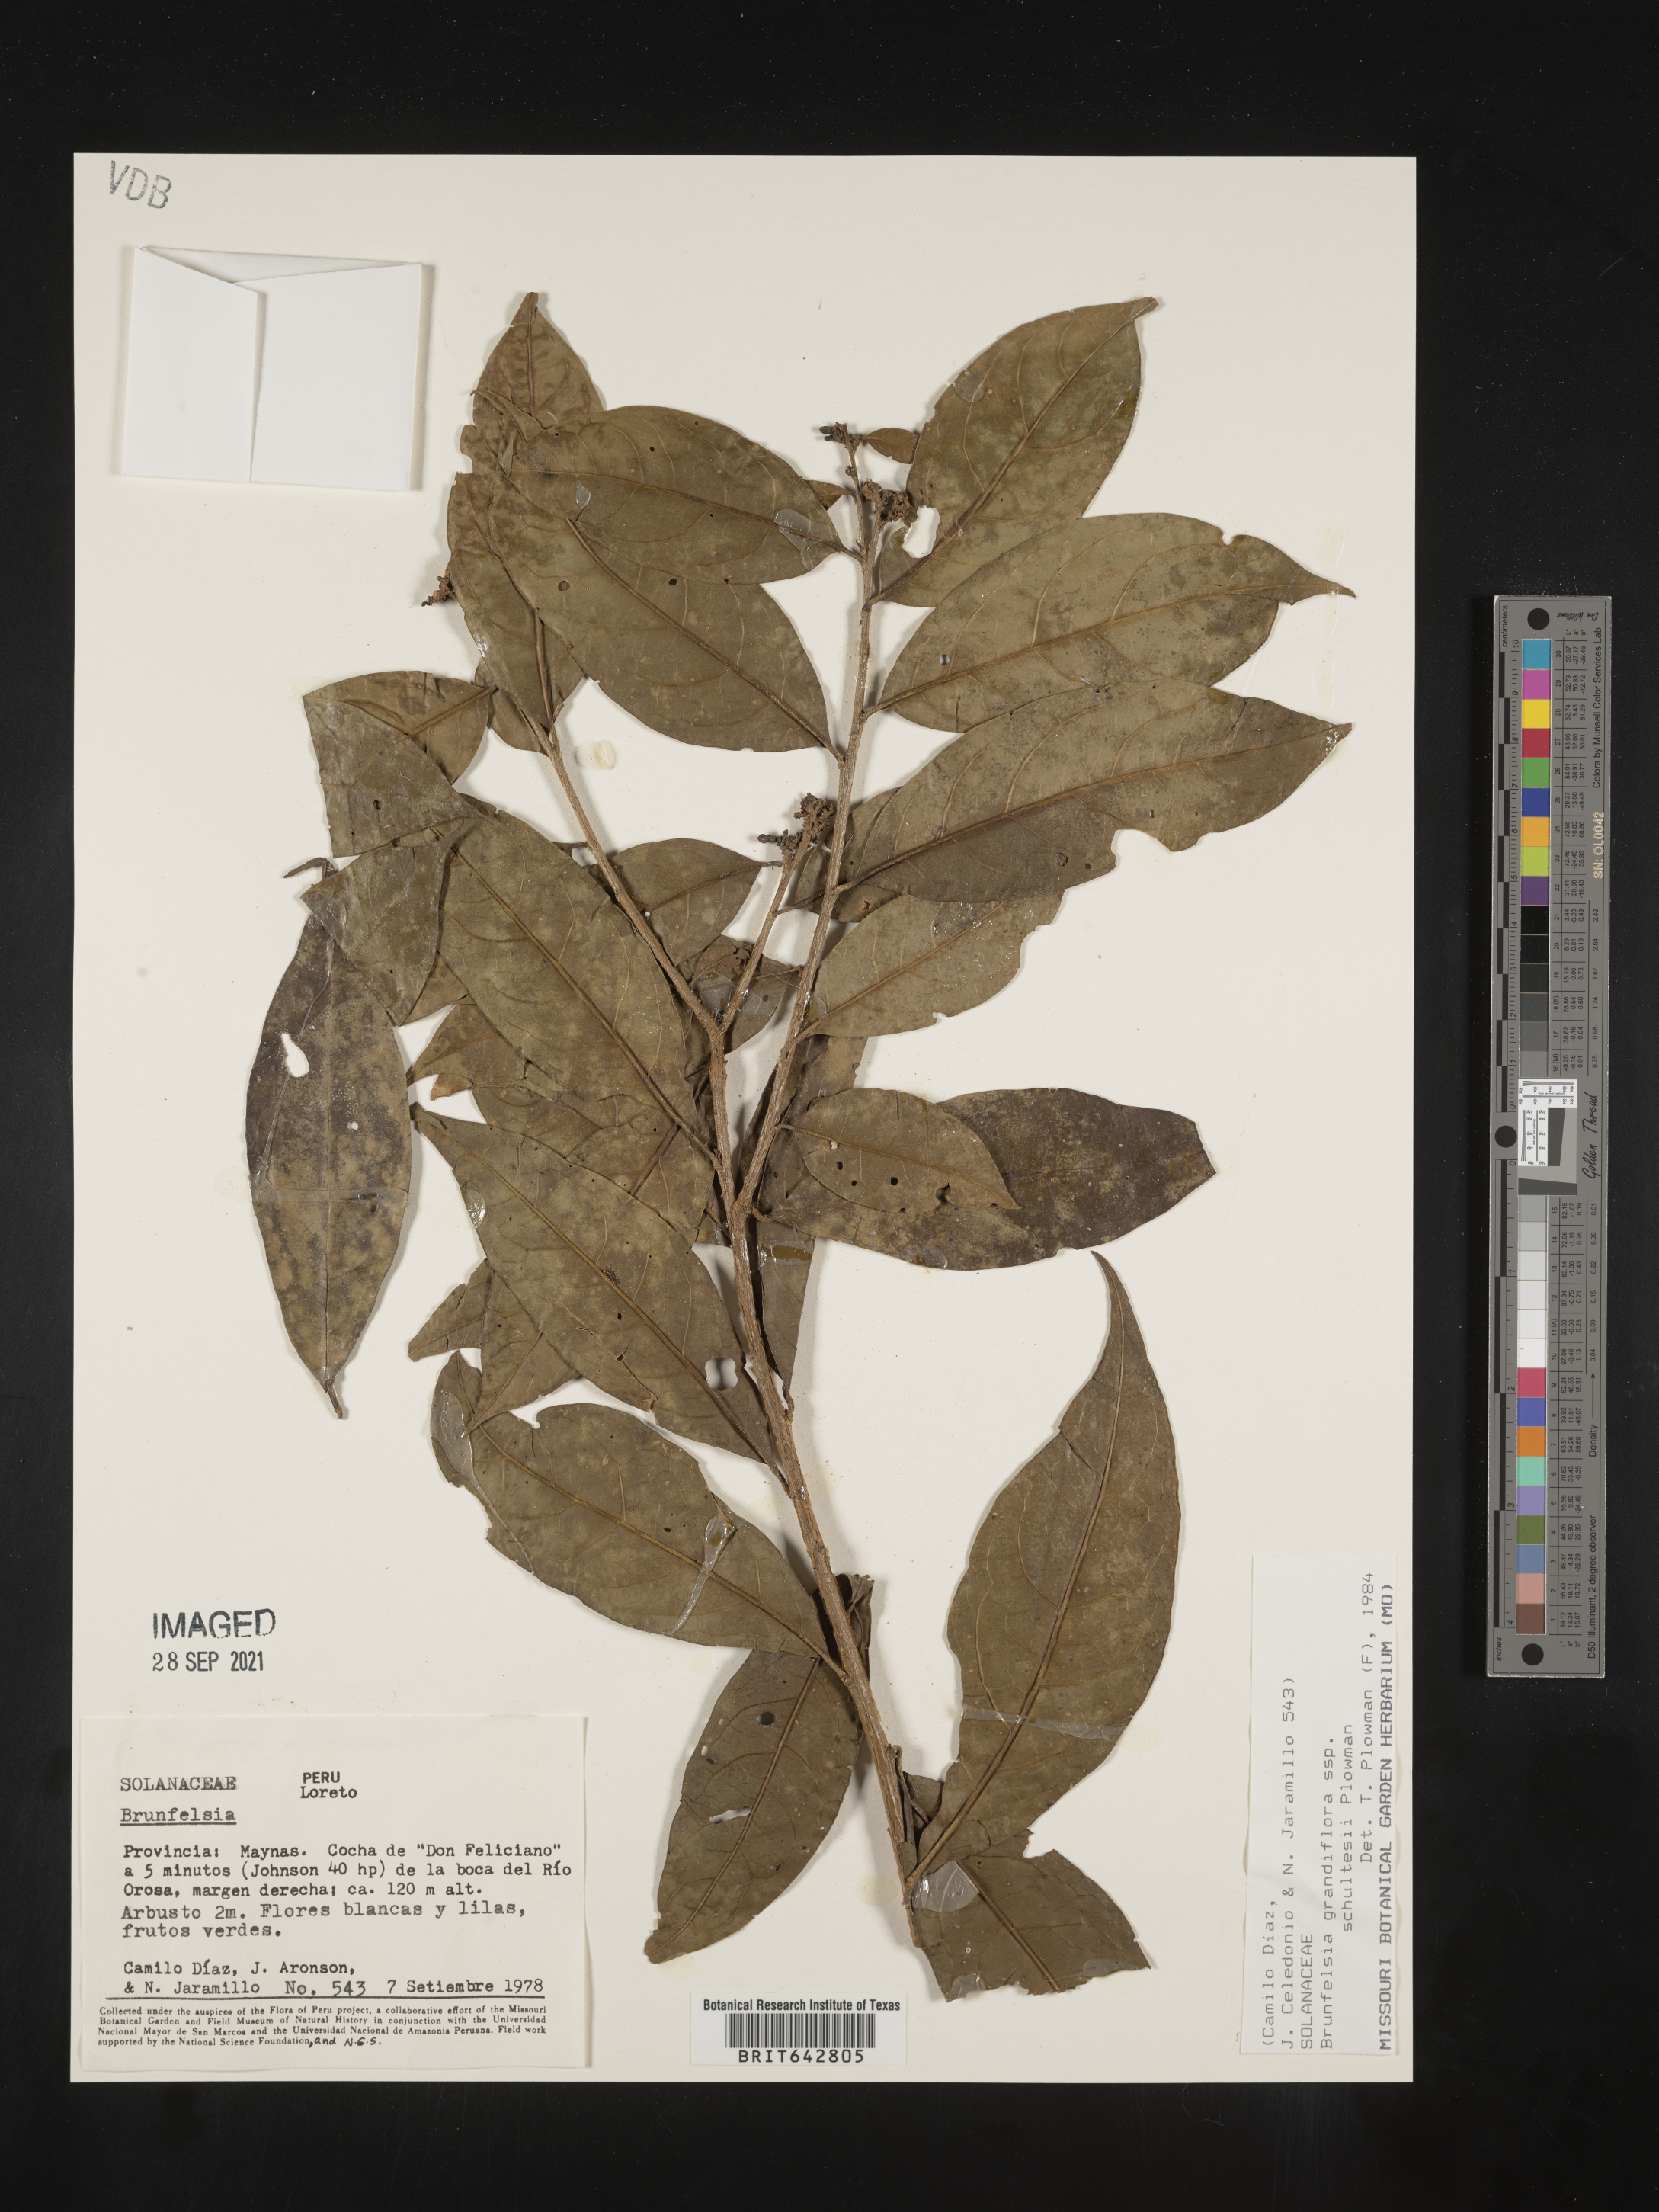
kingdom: Plantae
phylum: Tracheophyta
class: Magnoliopsida
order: Solanales
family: Solanaceae
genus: Brunfelsia
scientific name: Brunfelsia
